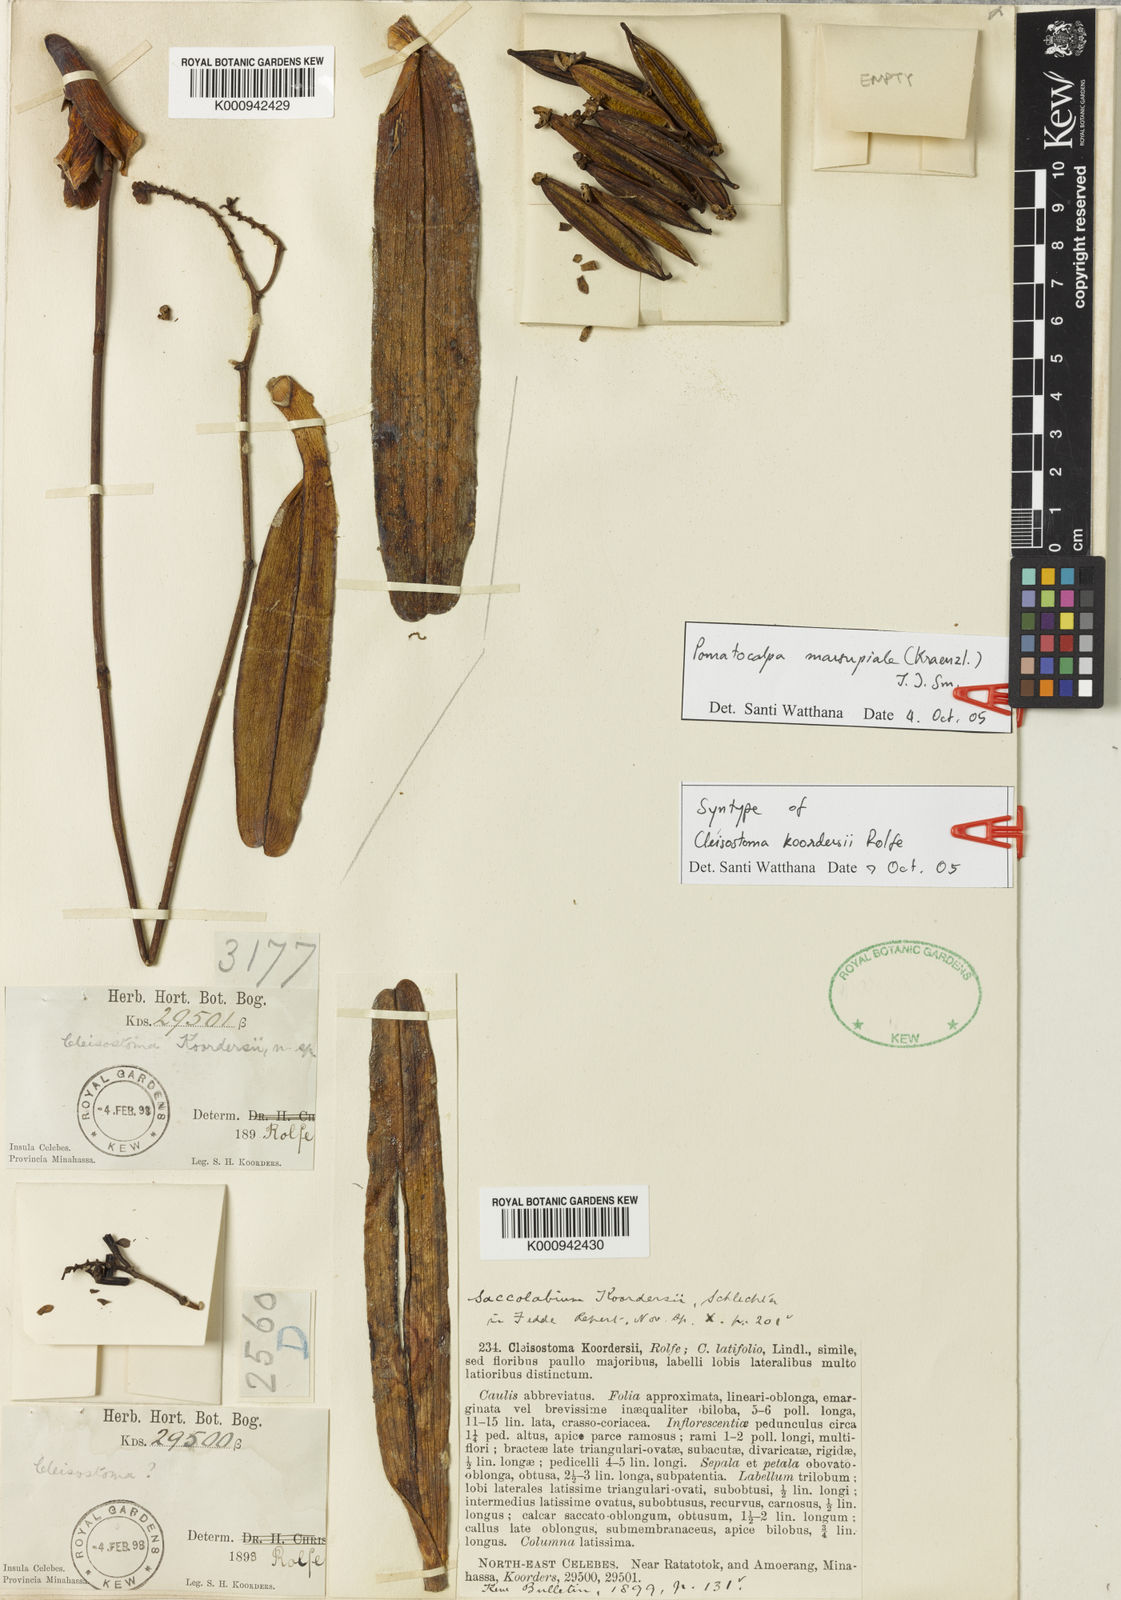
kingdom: Plantae
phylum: Tracheophyta
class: Liliopsida
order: Asparagales
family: Orchidaceae
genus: Pomatocalpa
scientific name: Pomatocalpa marsupiale
